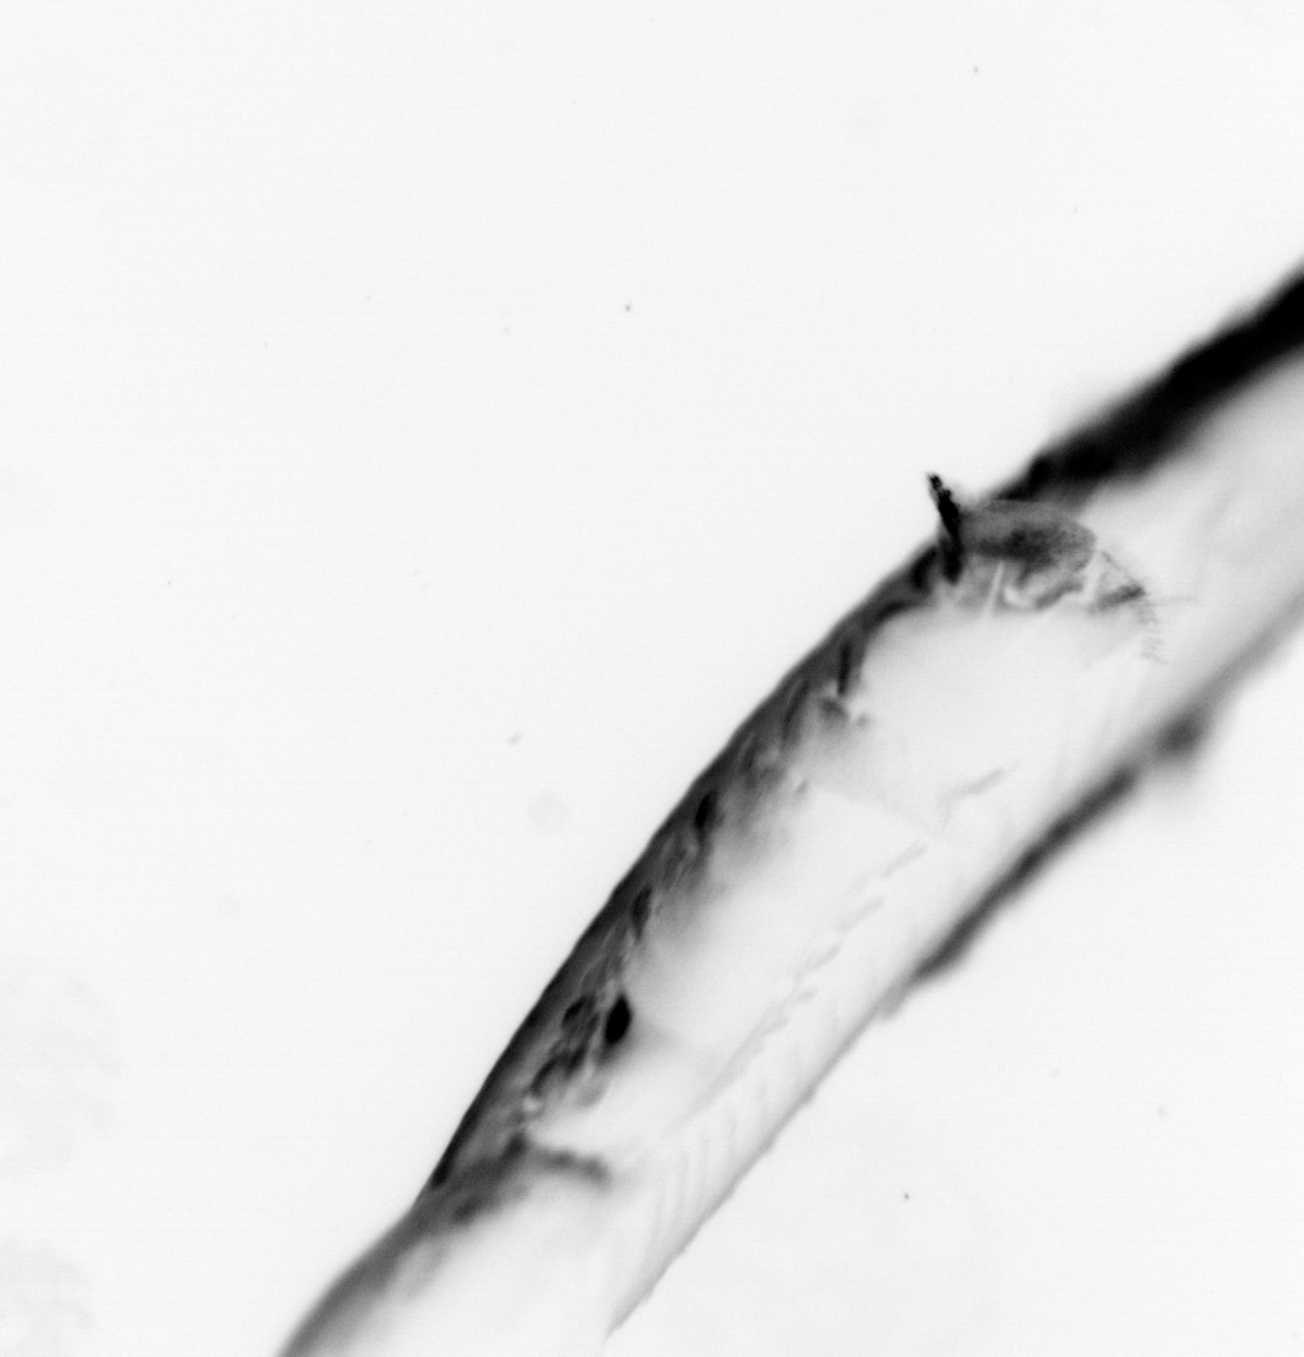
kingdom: Animalia
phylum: Chaetognatha
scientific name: Chaetognatha
